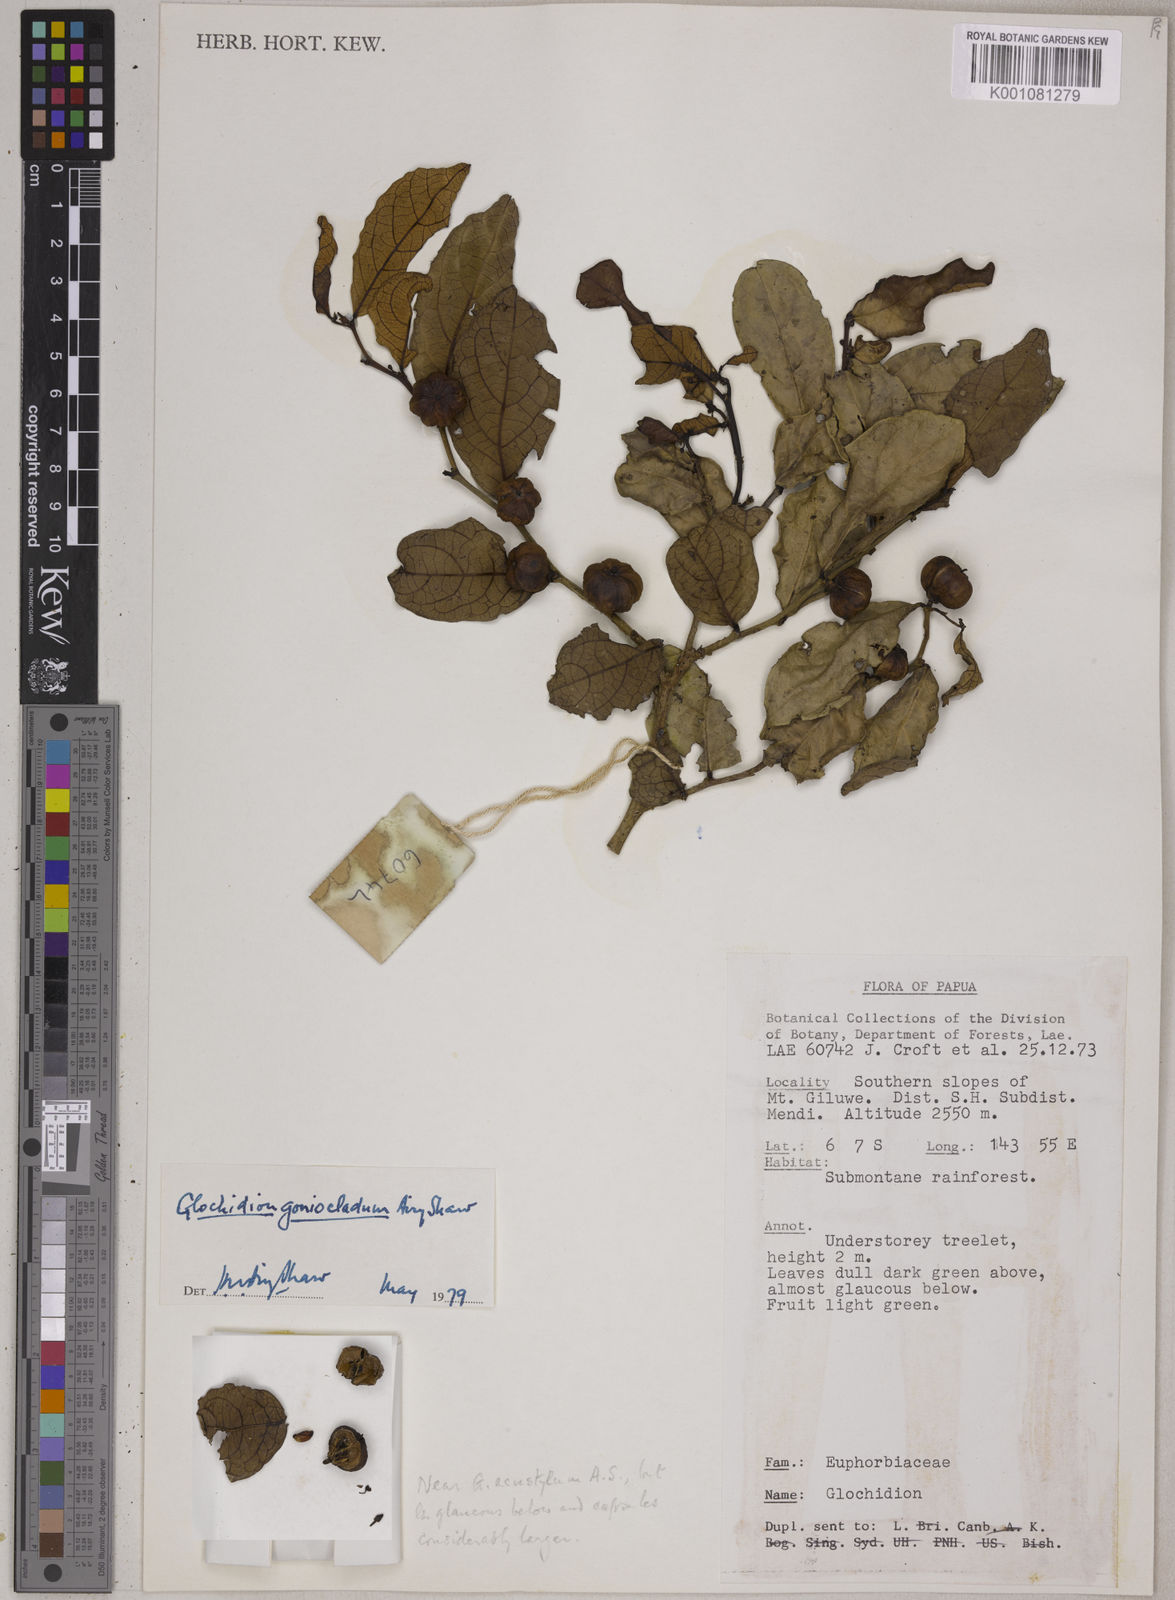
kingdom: Plantae
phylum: Tracheophyta
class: Magnoliopsida
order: Malpighiales
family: Phyllanthaceae
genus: Glochidion
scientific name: Glochidion goniocladum
